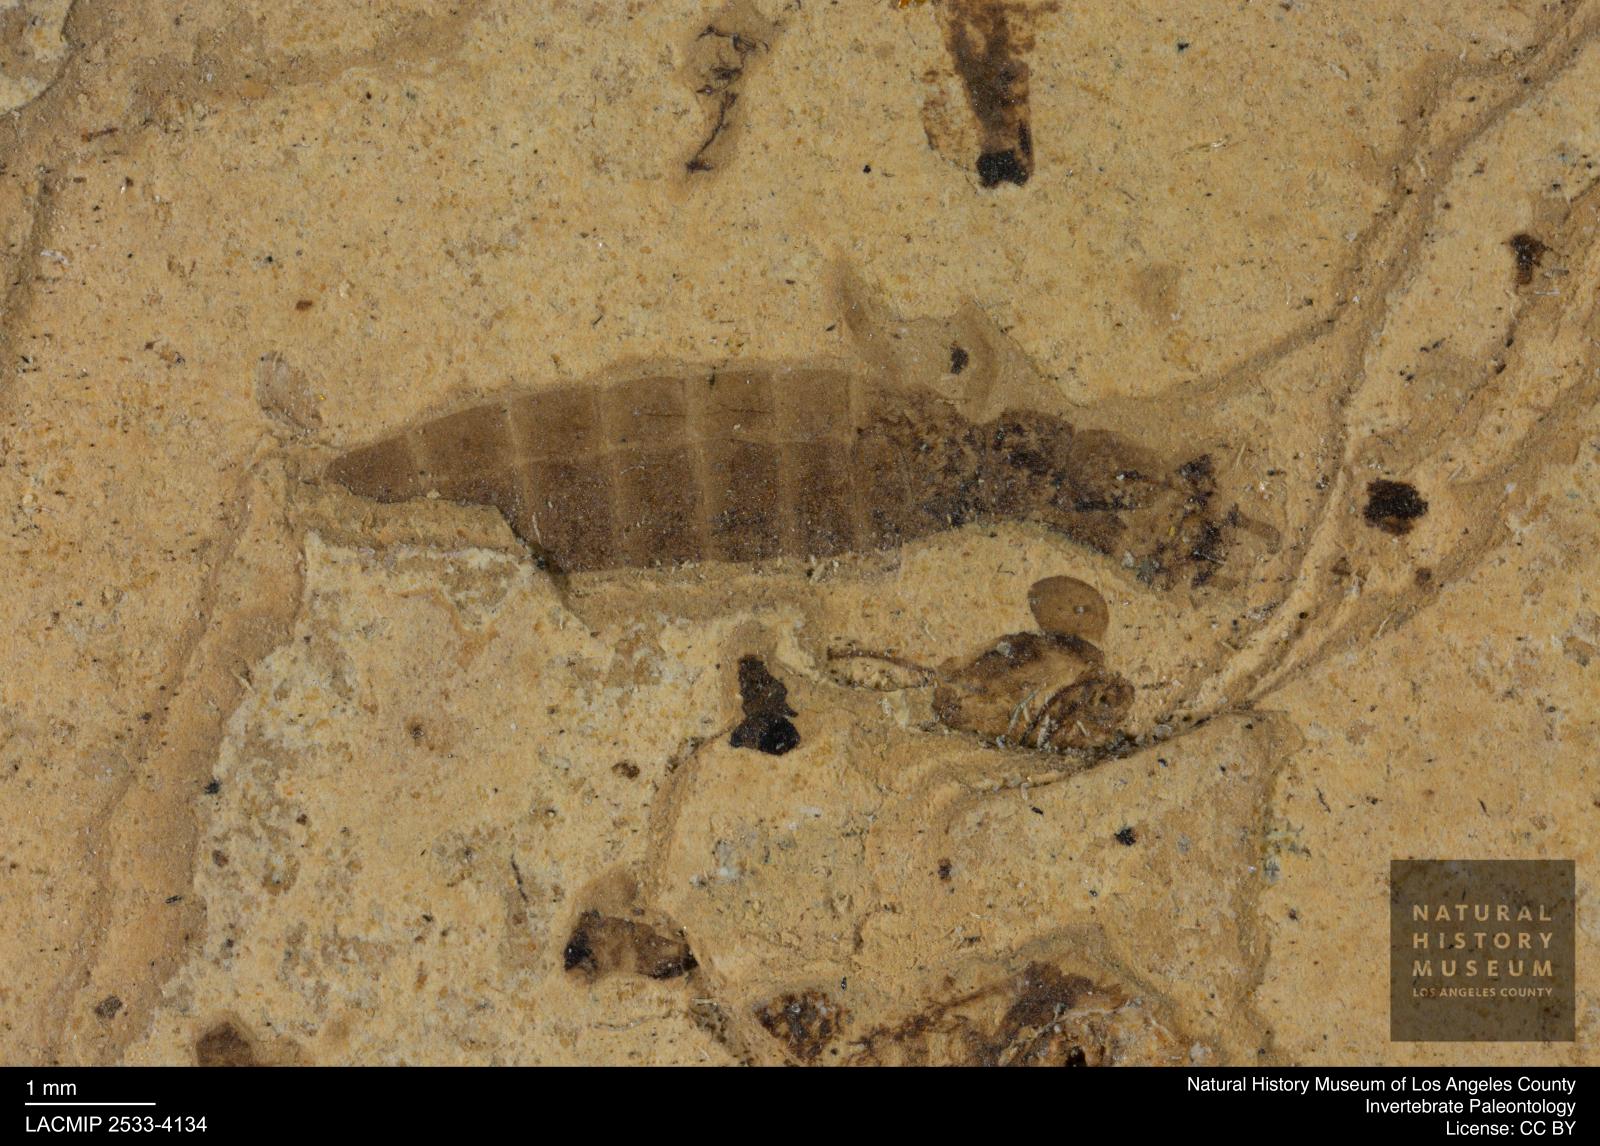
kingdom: Animalia
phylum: Arthropoda
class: Insecta
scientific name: Insecta
